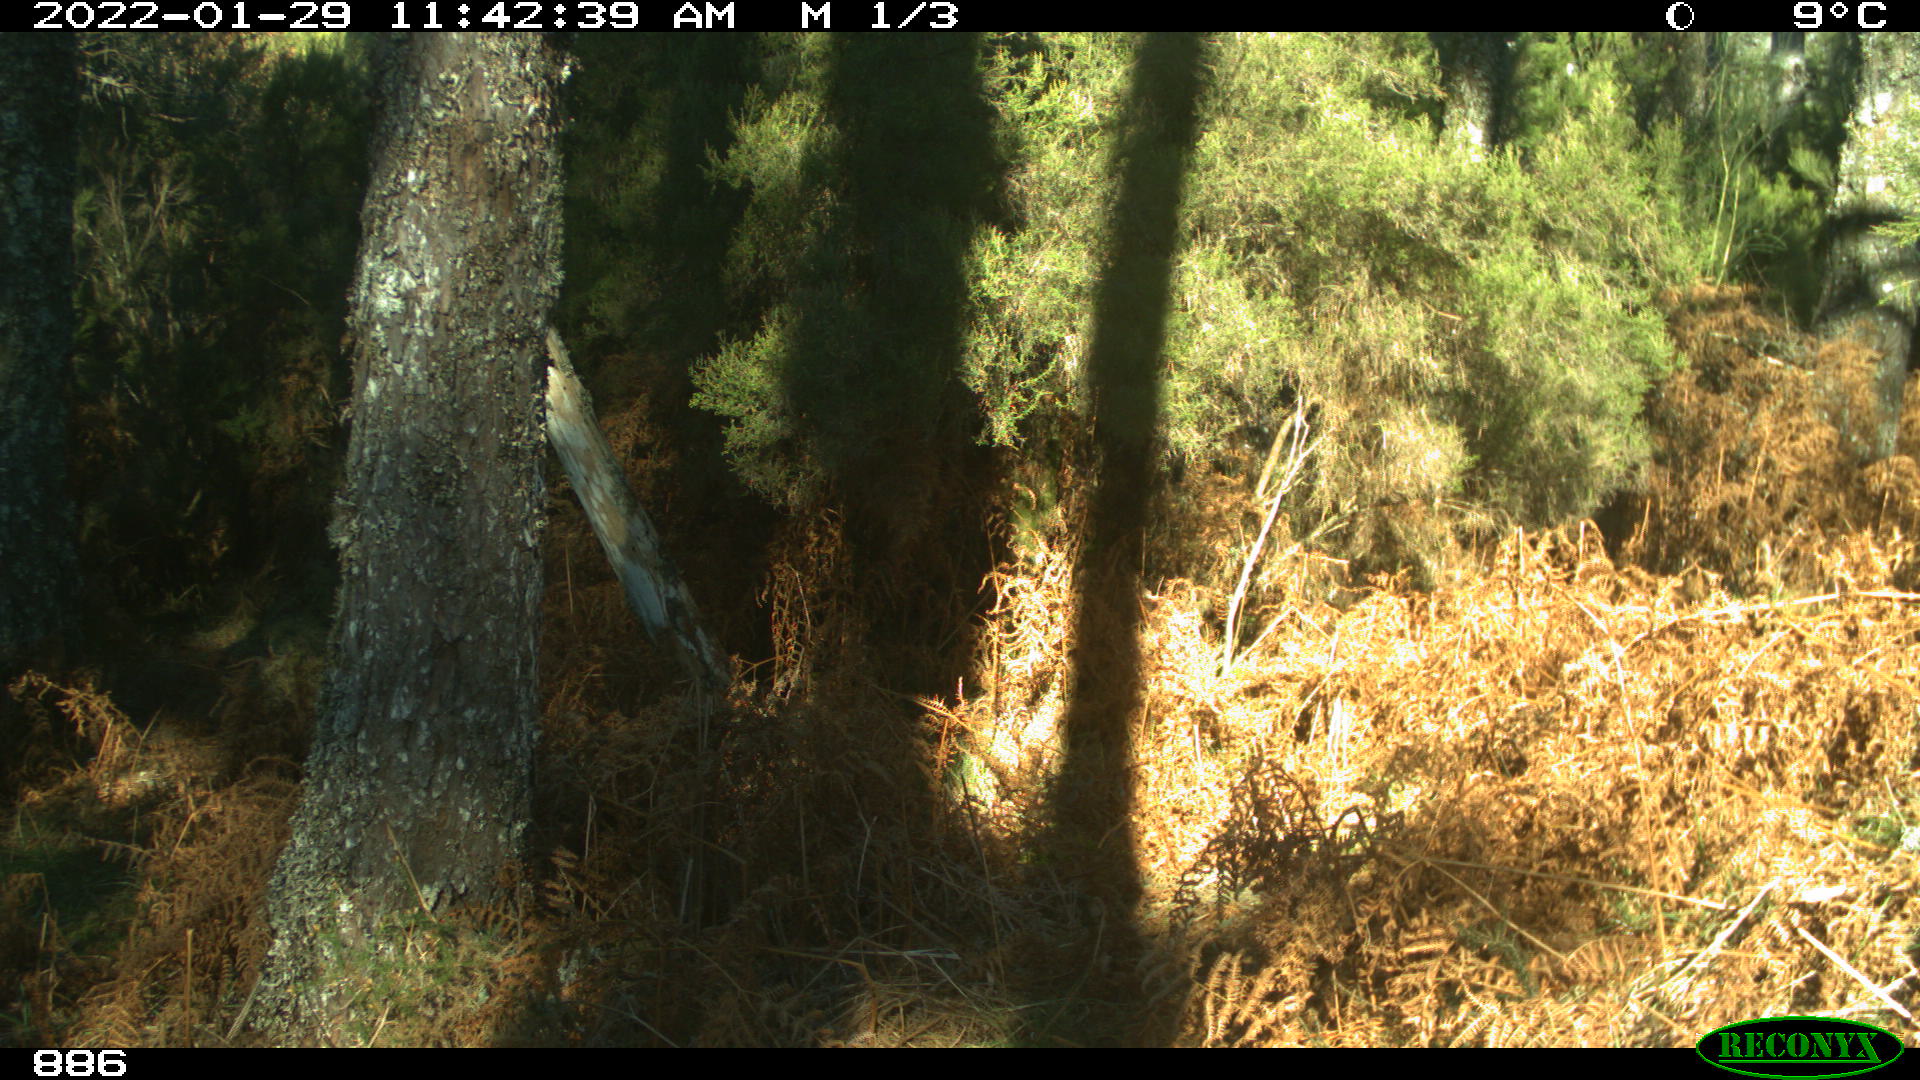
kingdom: Animalia
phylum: Chordata
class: Mammalia
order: Artiodactyla
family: Cervidae
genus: Capreolus
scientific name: Capreolus capreolus
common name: Western roe deer
